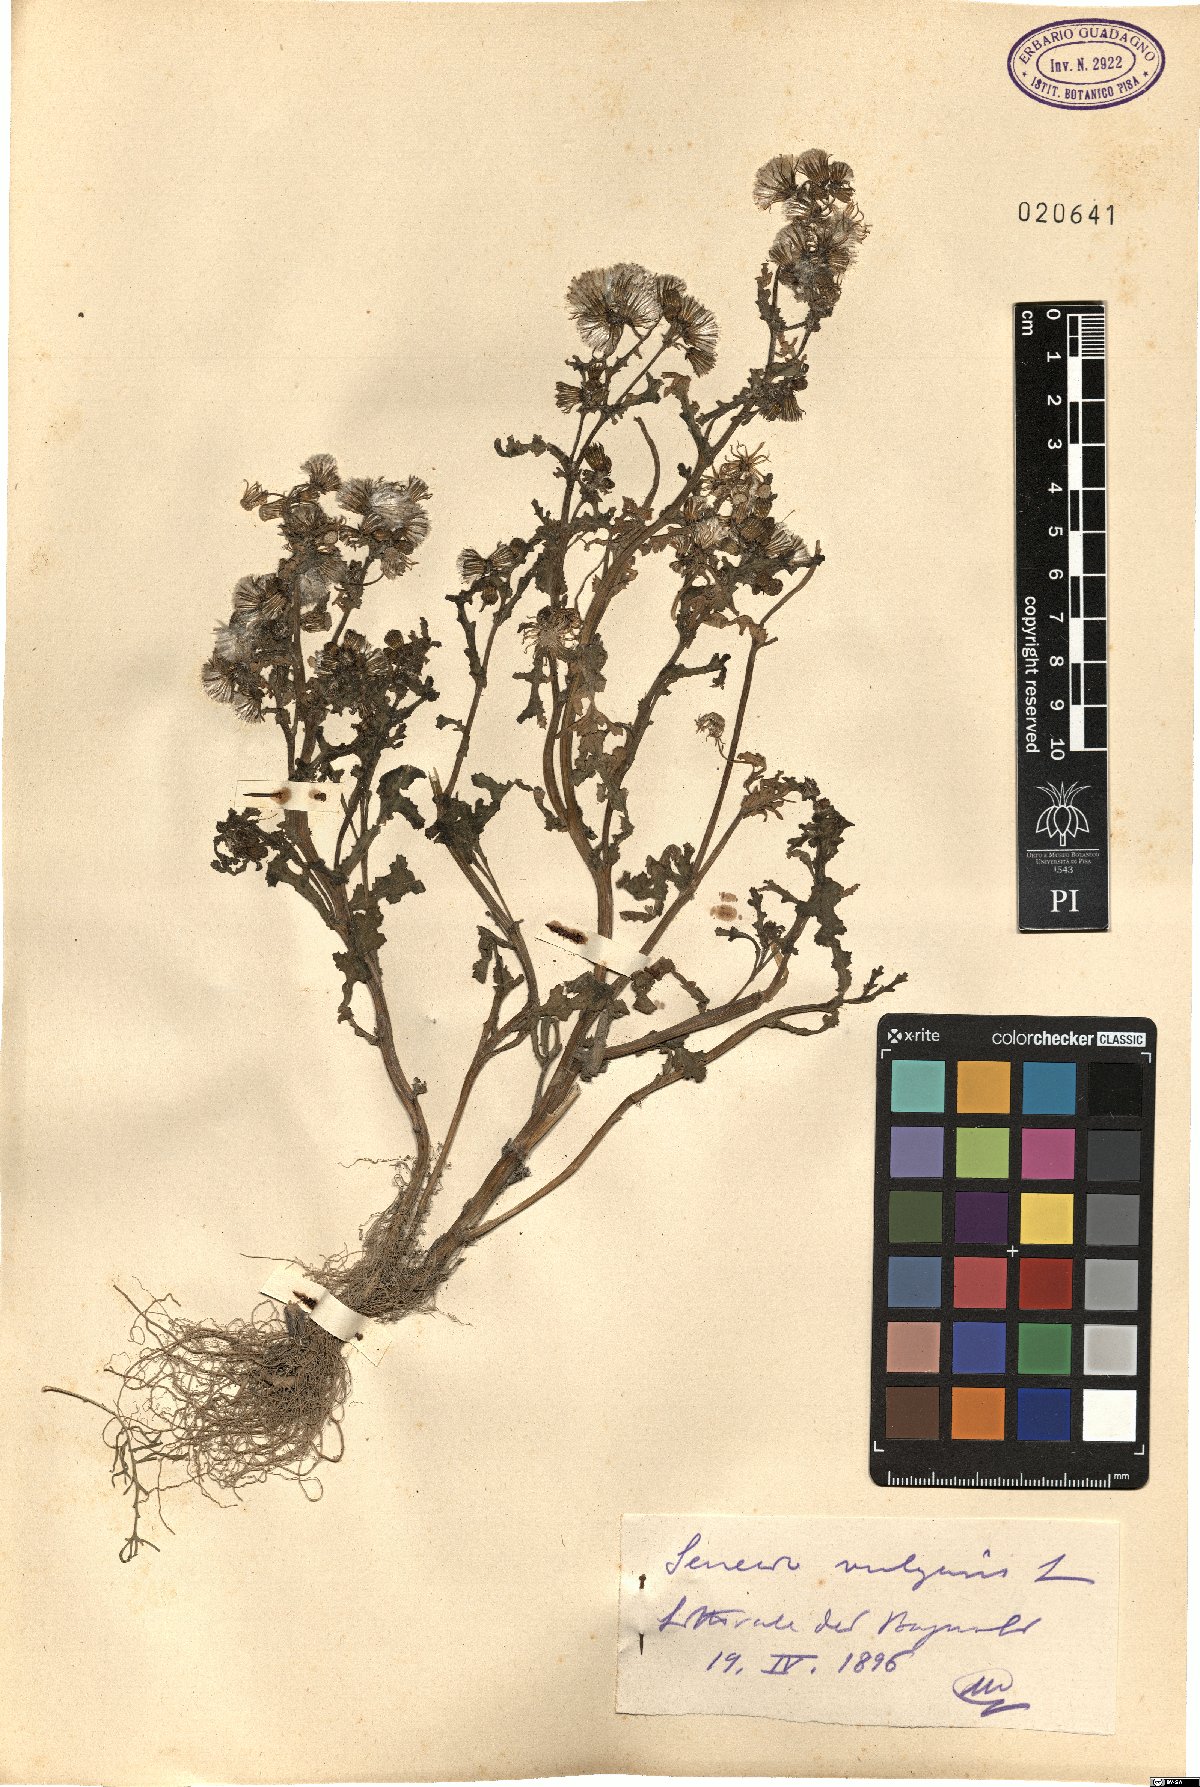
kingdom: Plantae
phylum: Tracheophyta
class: Magnoliopsida
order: Asterales
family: Asteraceae
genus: Senecio
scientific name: Senecio vulgaris
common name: Old-man-in-the-spring
